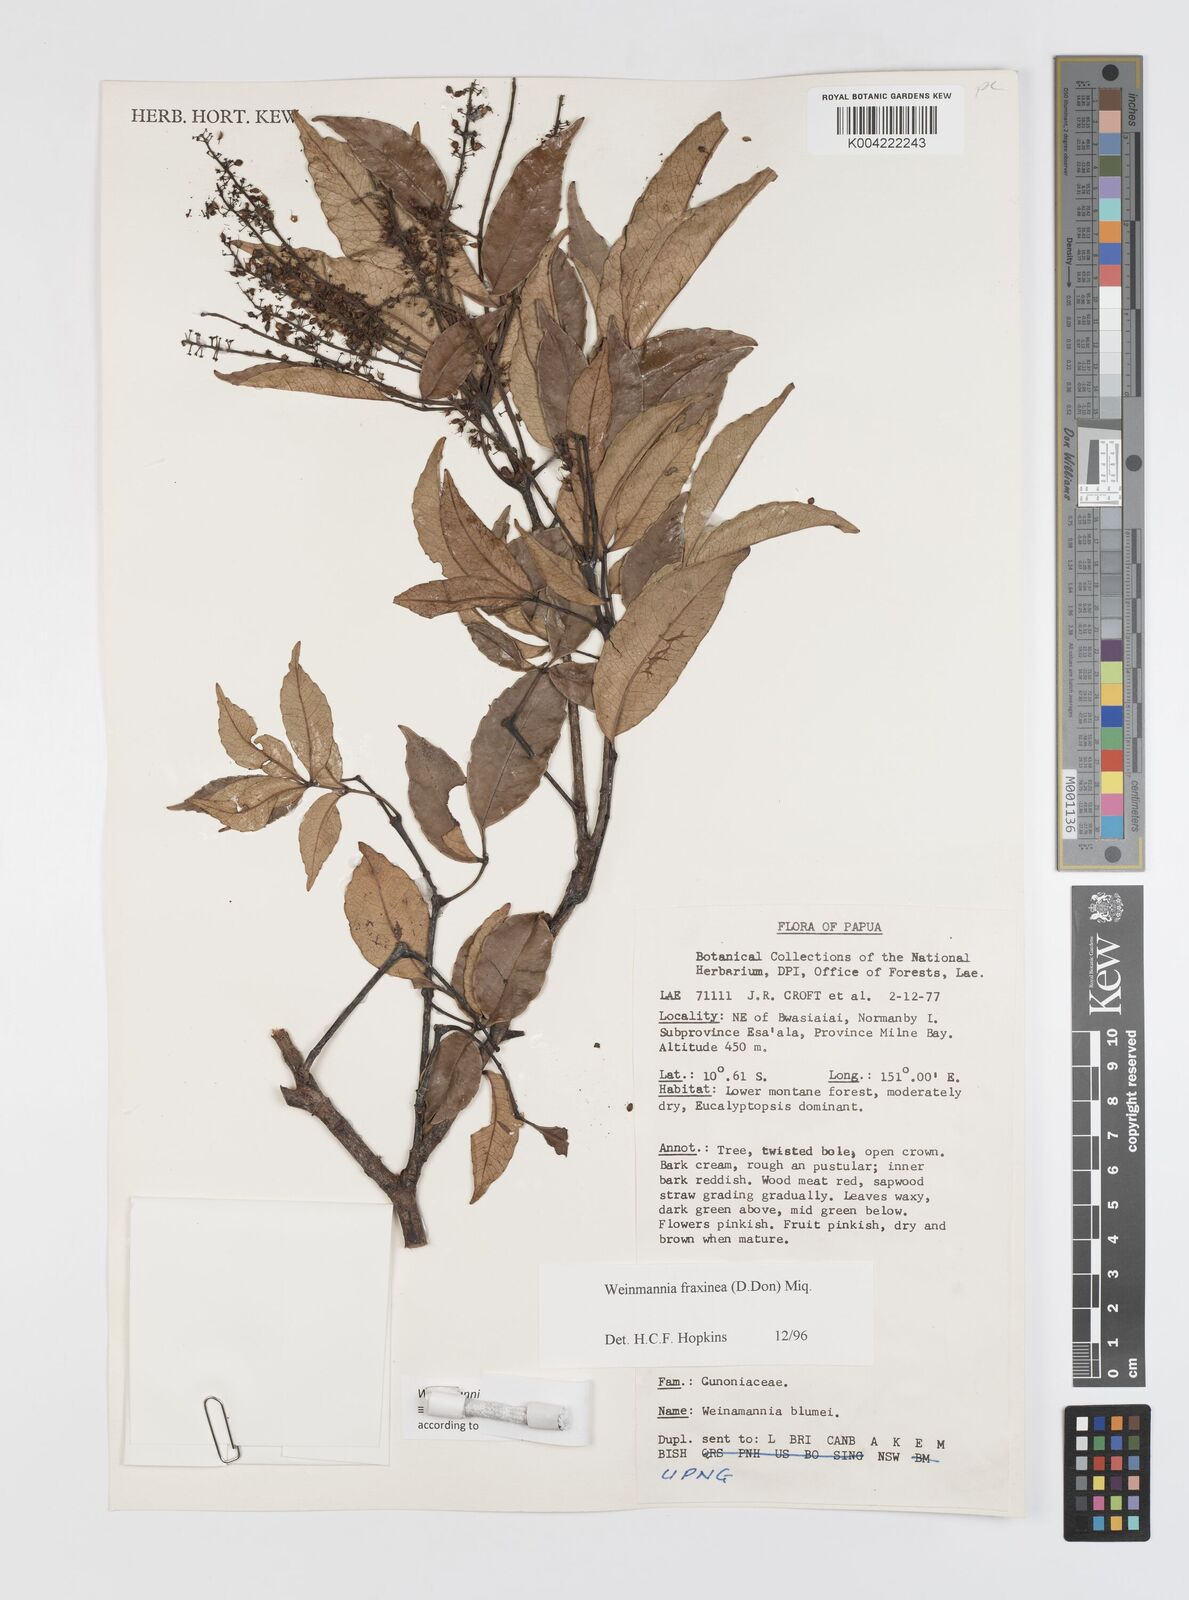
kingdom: Plantae
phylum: Tracheophyta
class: Magnoliopsida
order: Oxalidales
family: Cunoniaceae
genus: Pterophylla
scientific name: Pterophylla fraxinea
